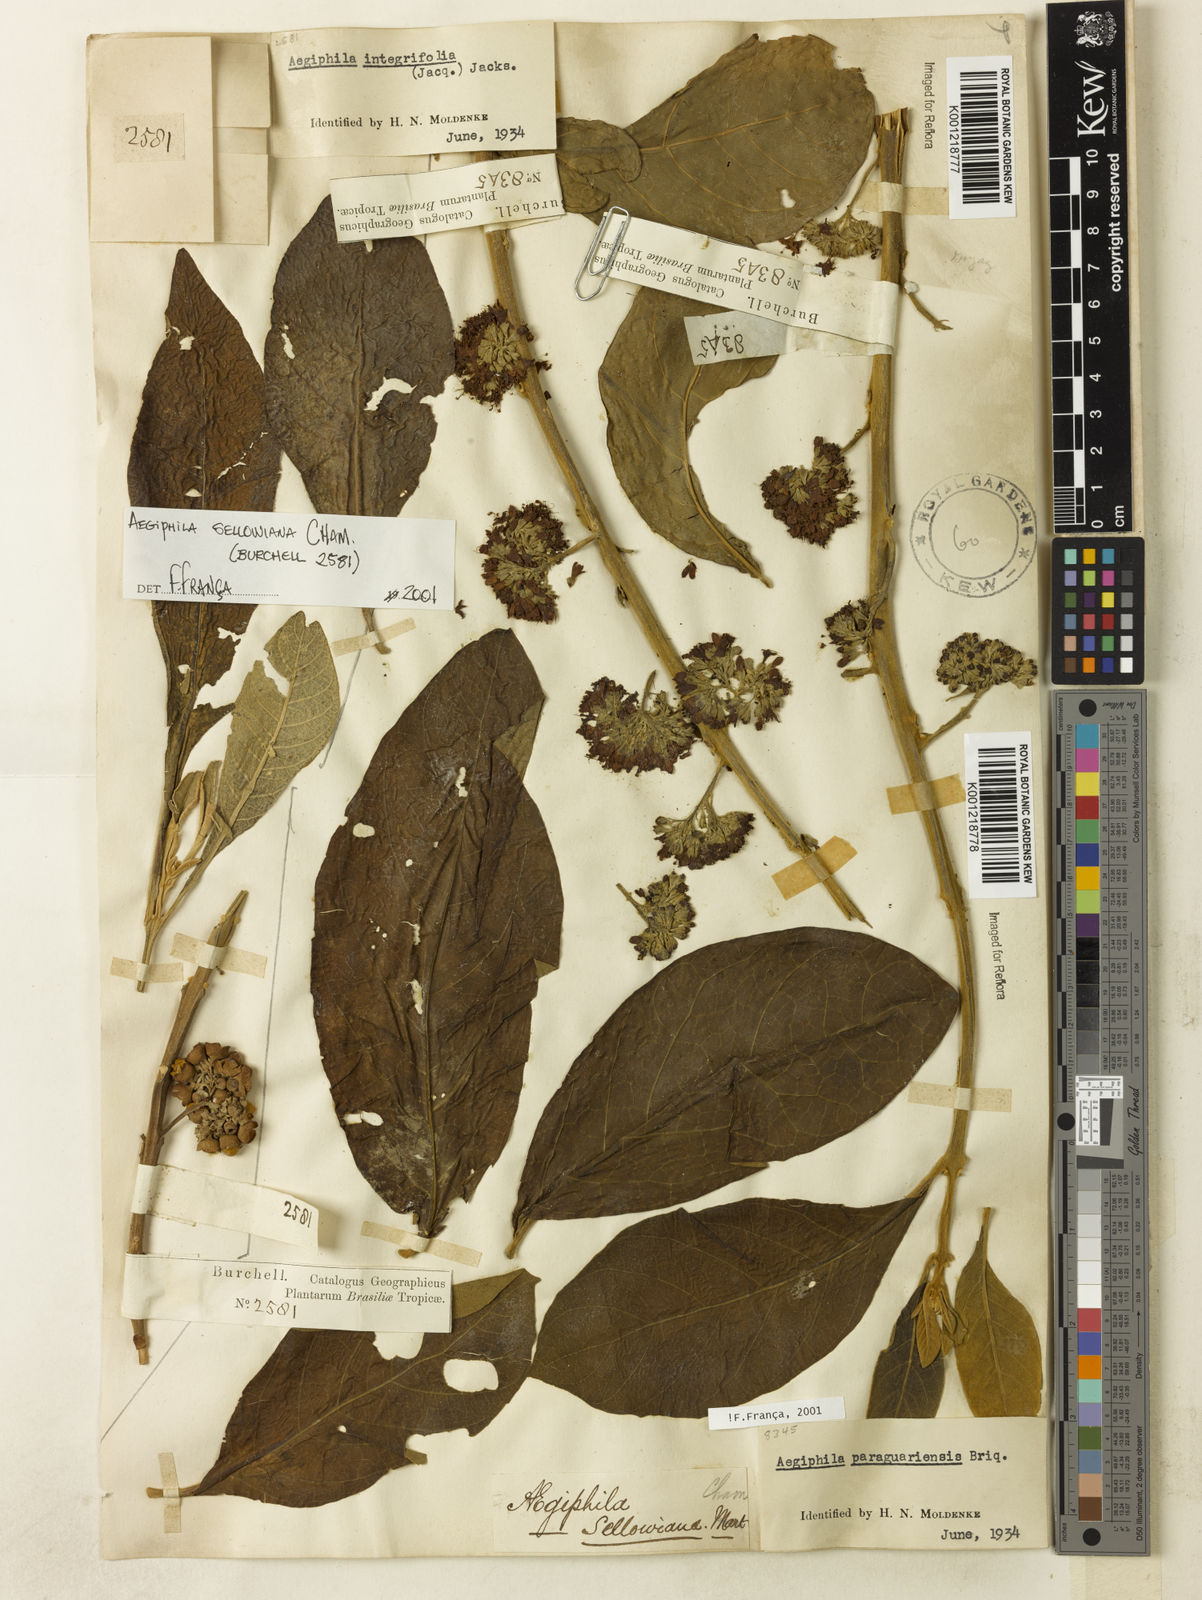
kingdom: Plantae
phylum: Tracheophyta
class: Magnoliopsida
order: Lamiales
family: Lamiaceae
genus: Aegiphila
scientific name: Aegiphila verticillata
